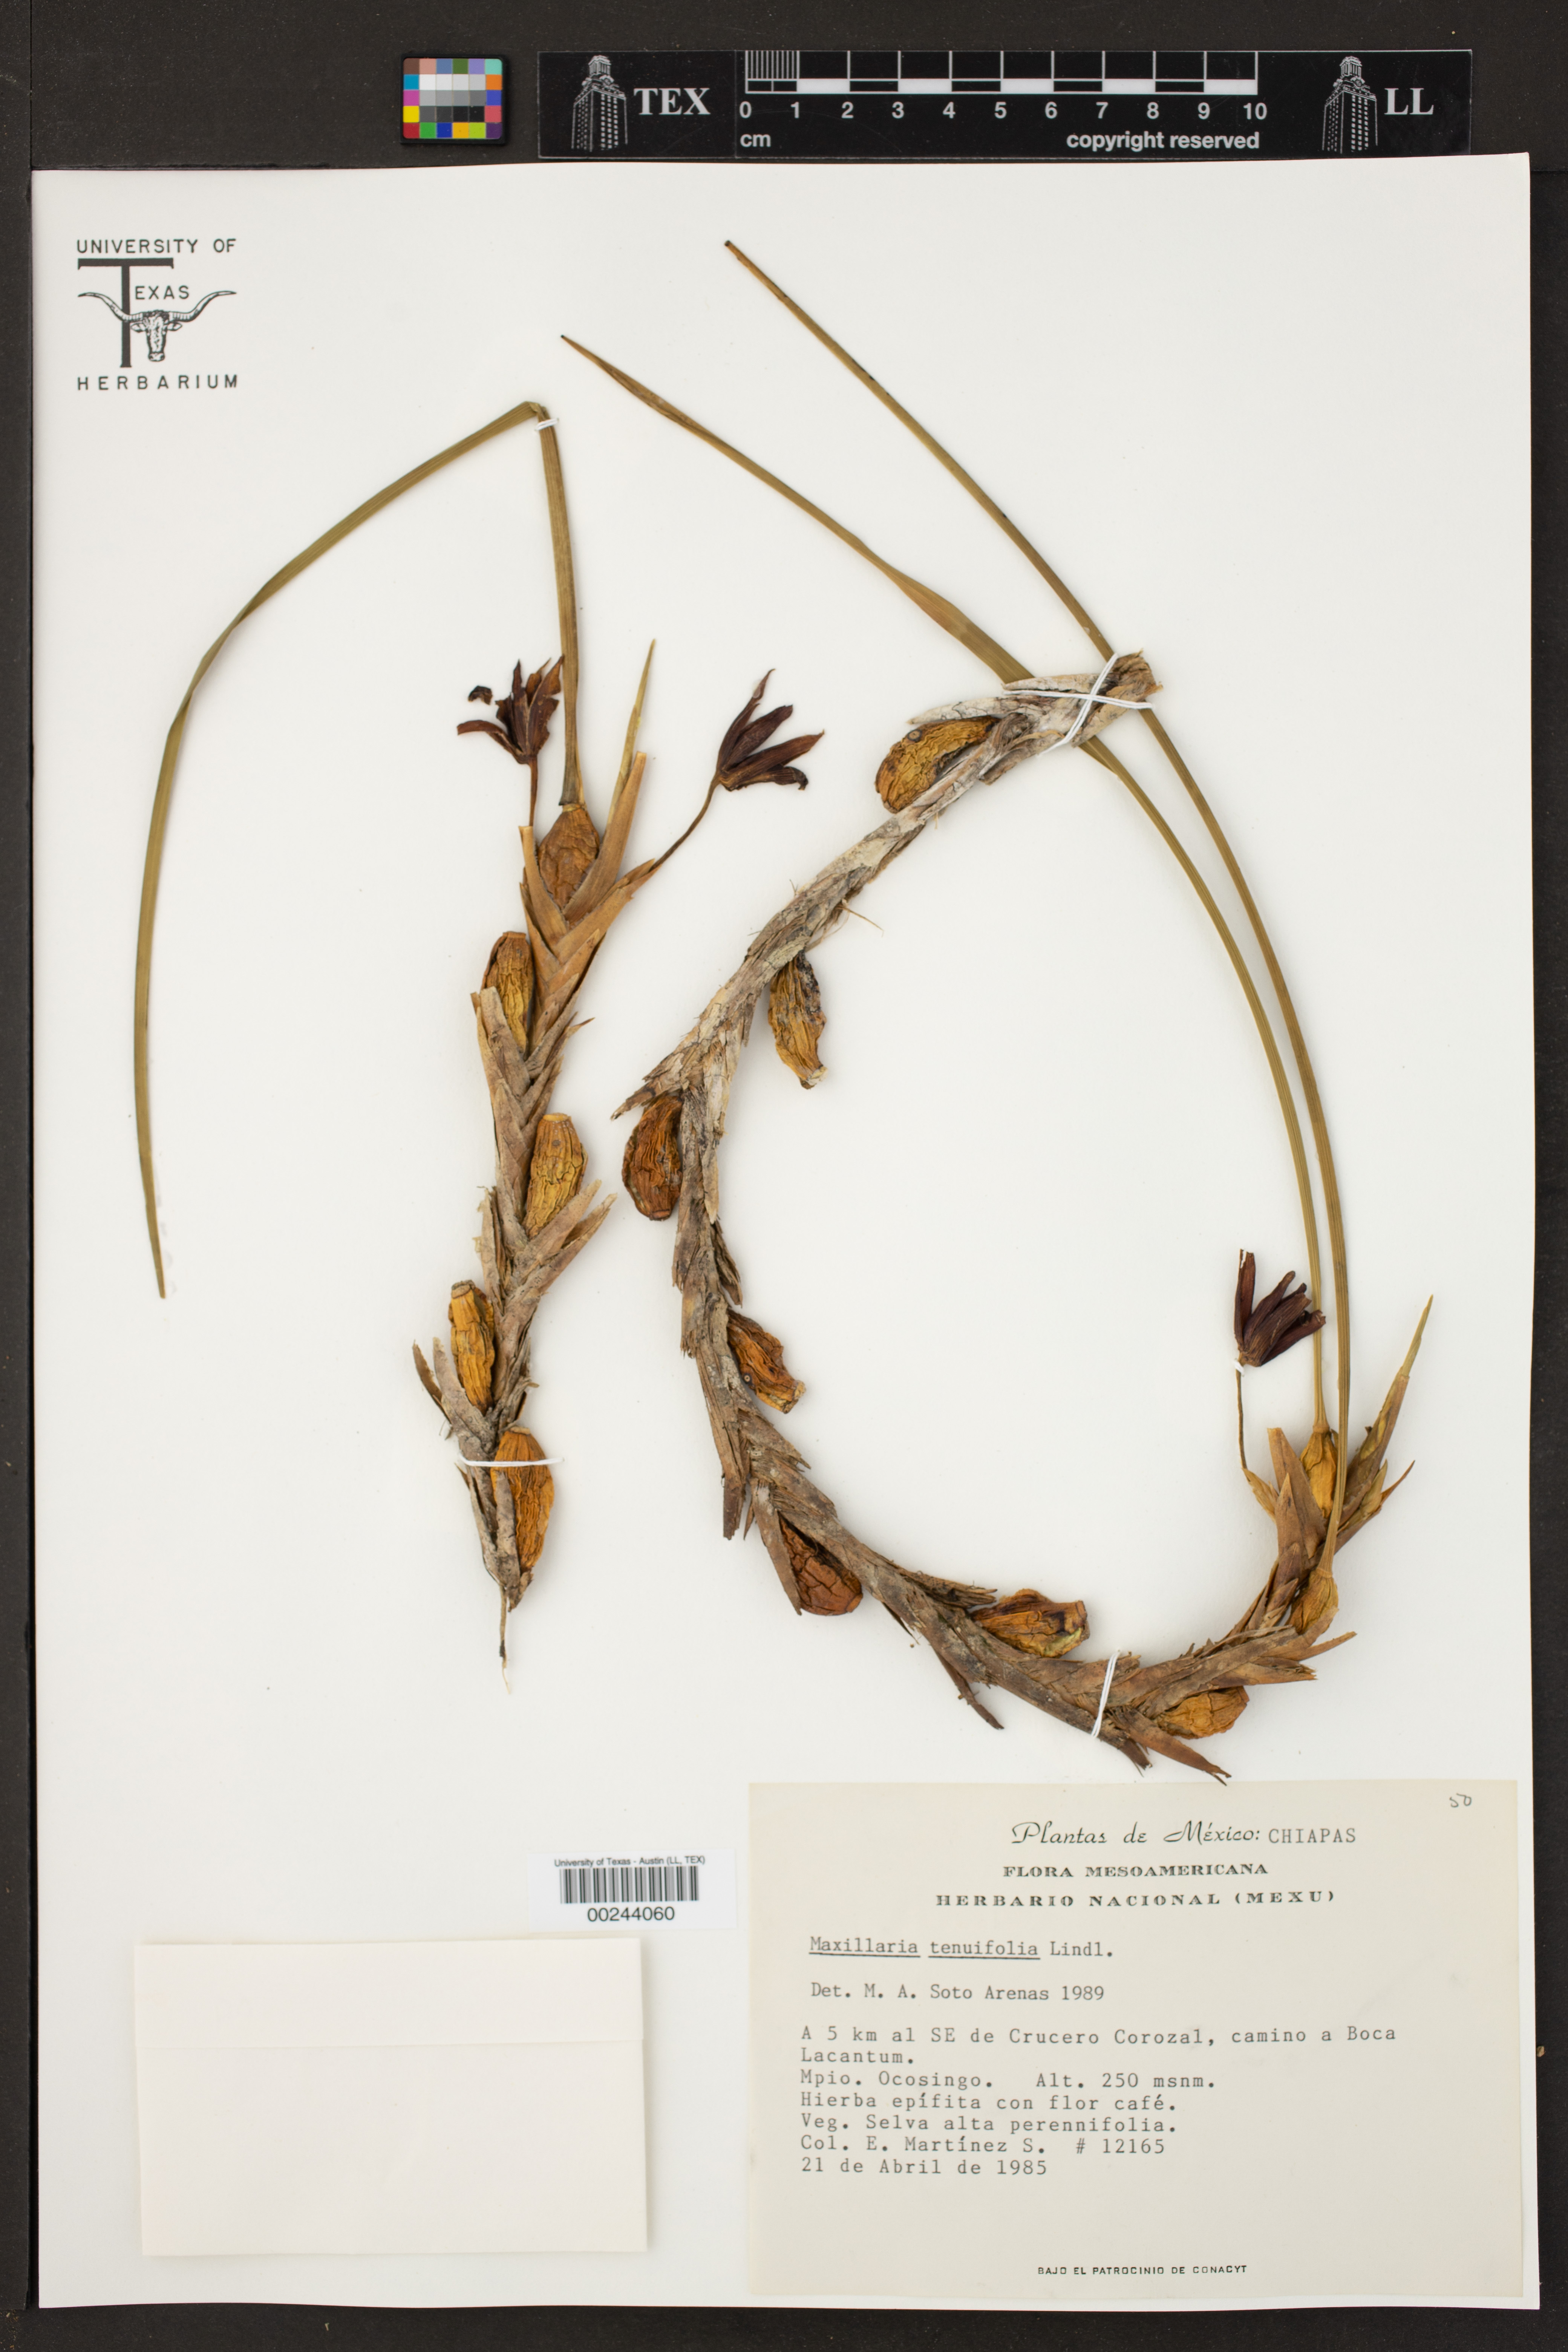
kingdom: Plantae
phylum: Tracheophyta
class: Liliopsida
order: Asparagales
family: Orchidaceae
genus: Maxillaria
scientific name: Maxillaria tenuifolia
